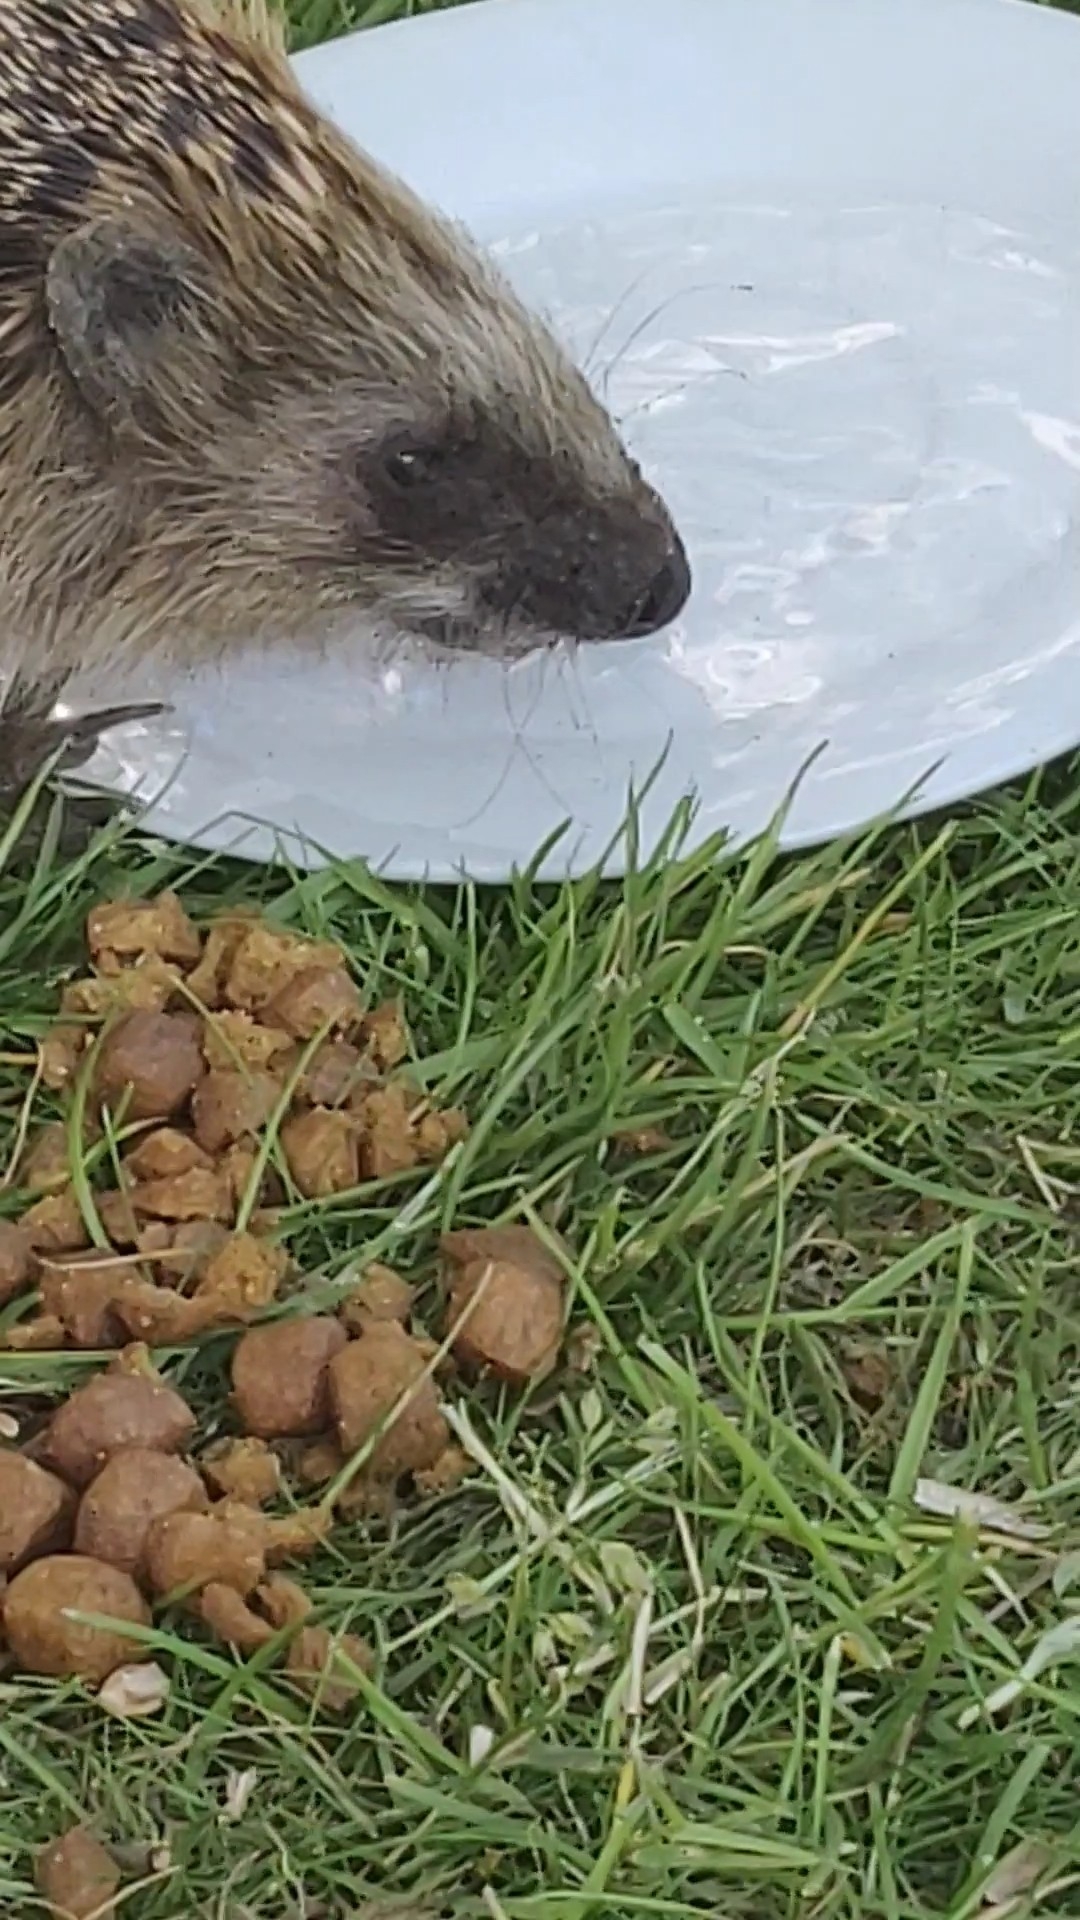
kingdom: Animalia
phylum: Chordata
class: Mammalia
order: Erinaceomorpha
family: Erinaceidae
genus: Erinaceus
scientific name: Erinaceus europaeus
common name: Pindsvin
